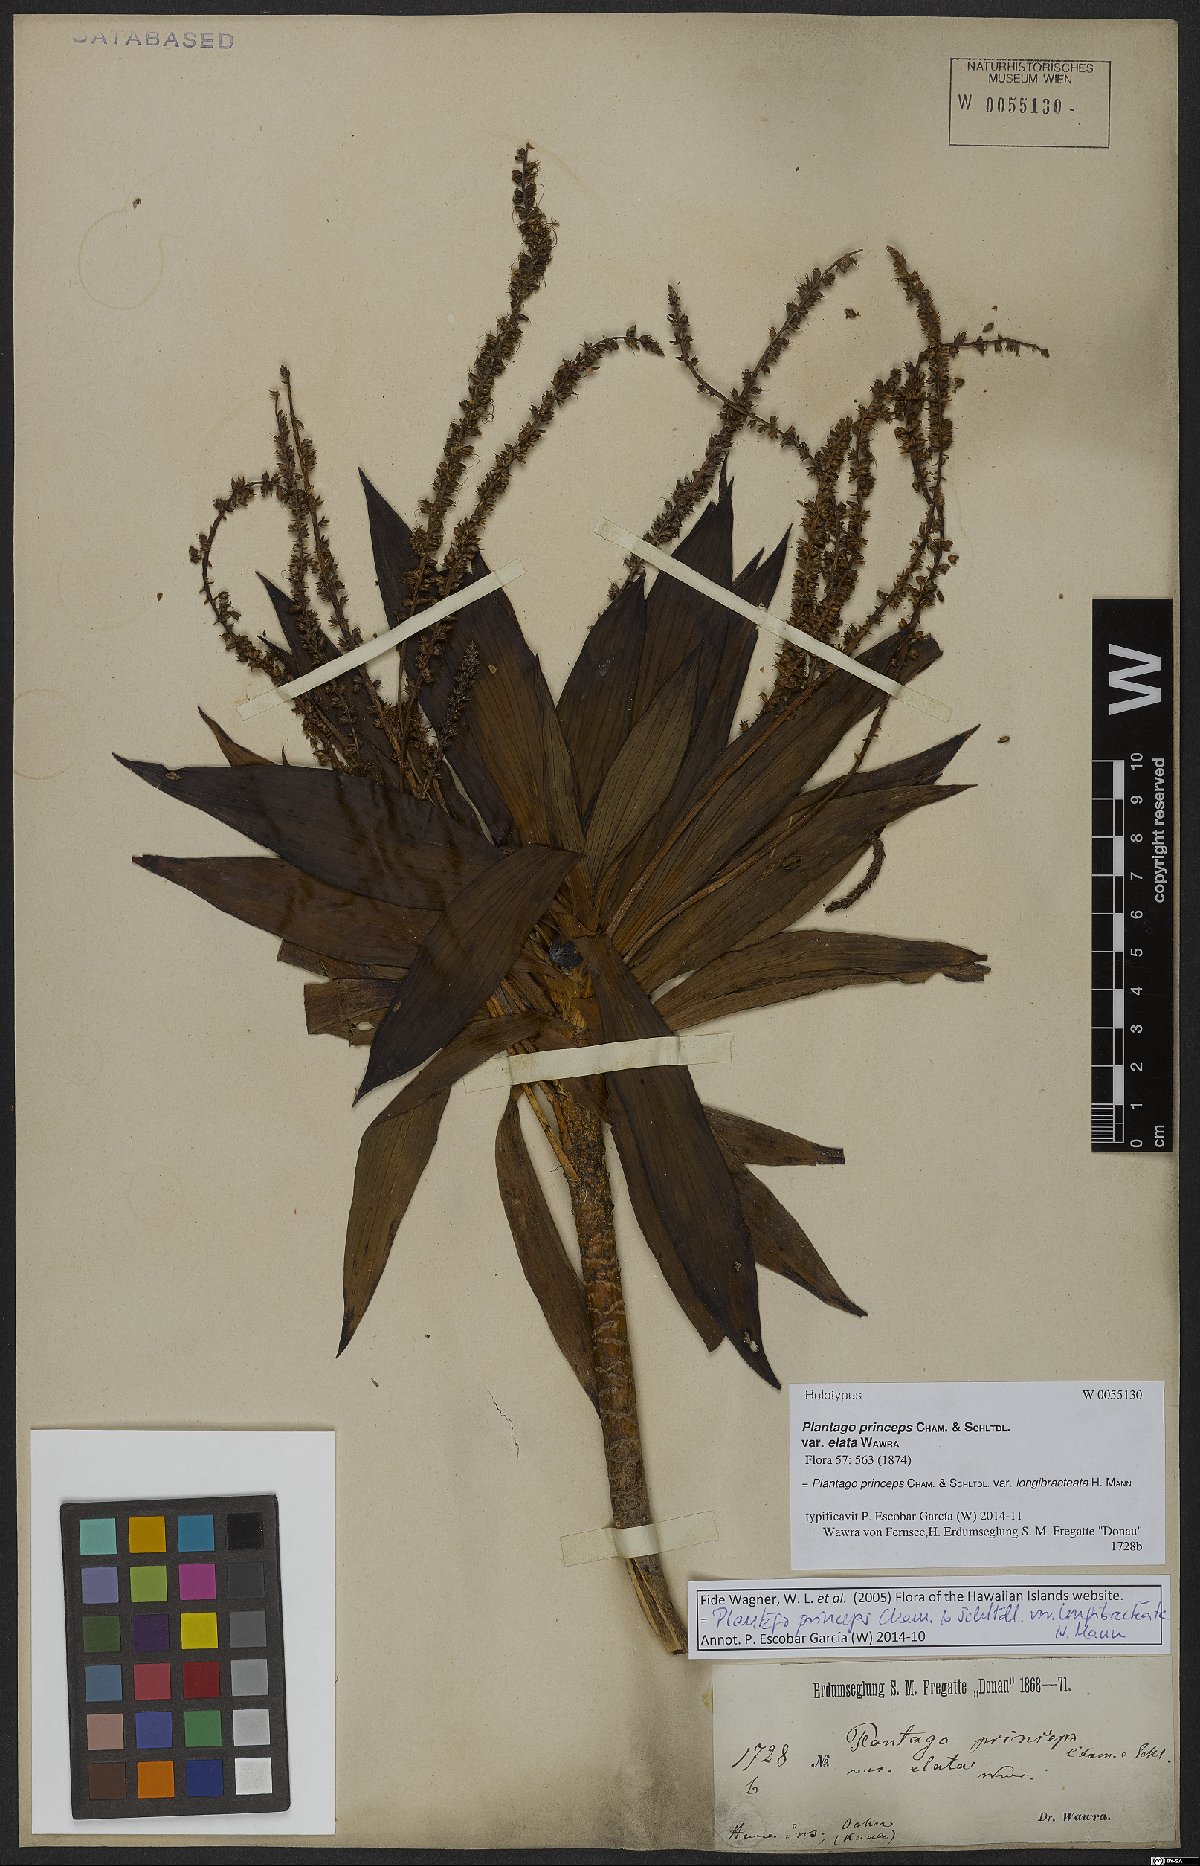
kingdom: Plantae
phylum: Tracheophyta
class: Magnoliopsida
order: Lamiales
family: Plantaginaceae
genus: Plantago
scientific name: Plantago princeps
